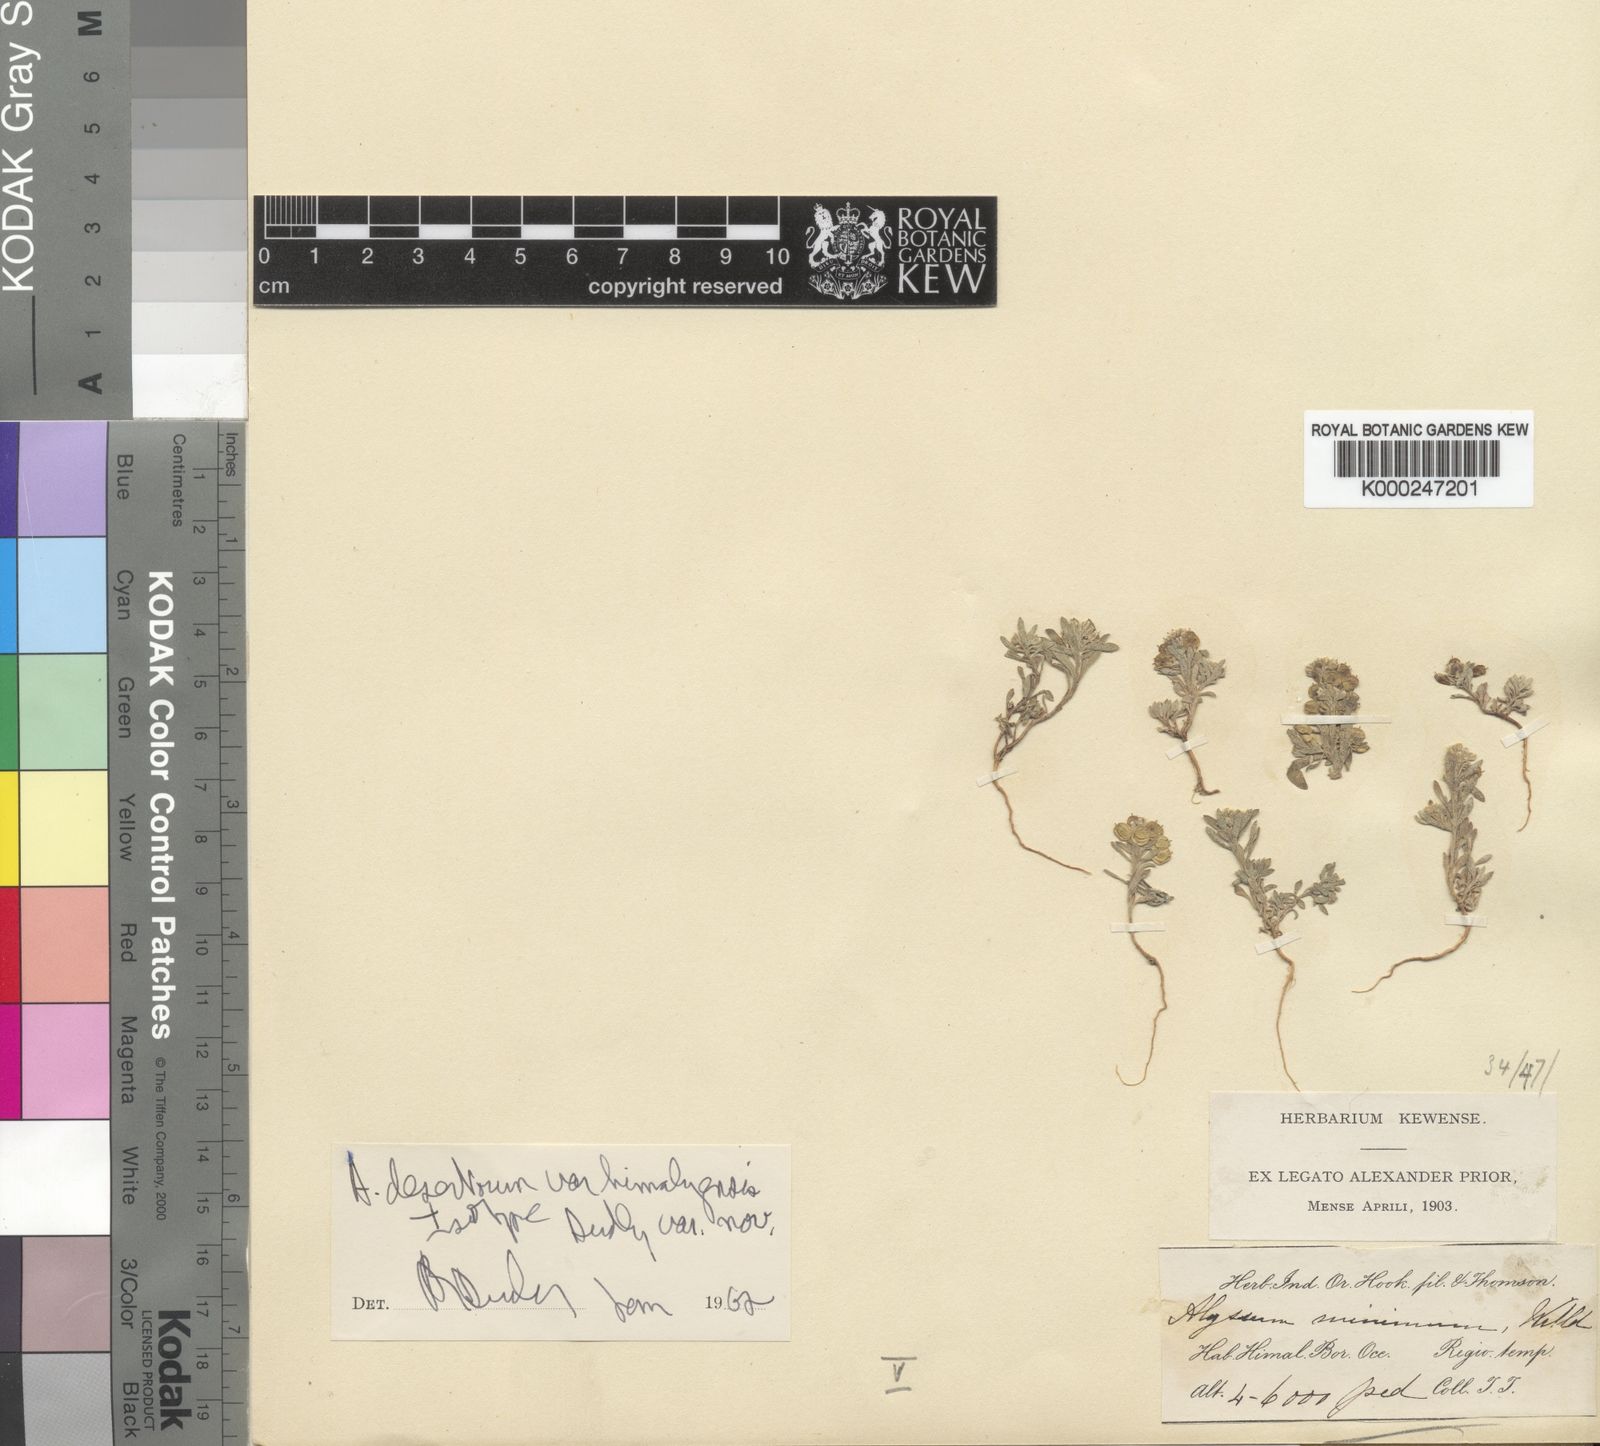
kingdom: Plantae
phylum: Tracheophyta
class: Magnoliopsida
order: Brassicales
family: Brassicaceae
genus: Alyssum
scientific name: Alyssum turkestanicum
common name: Desert alyssum
